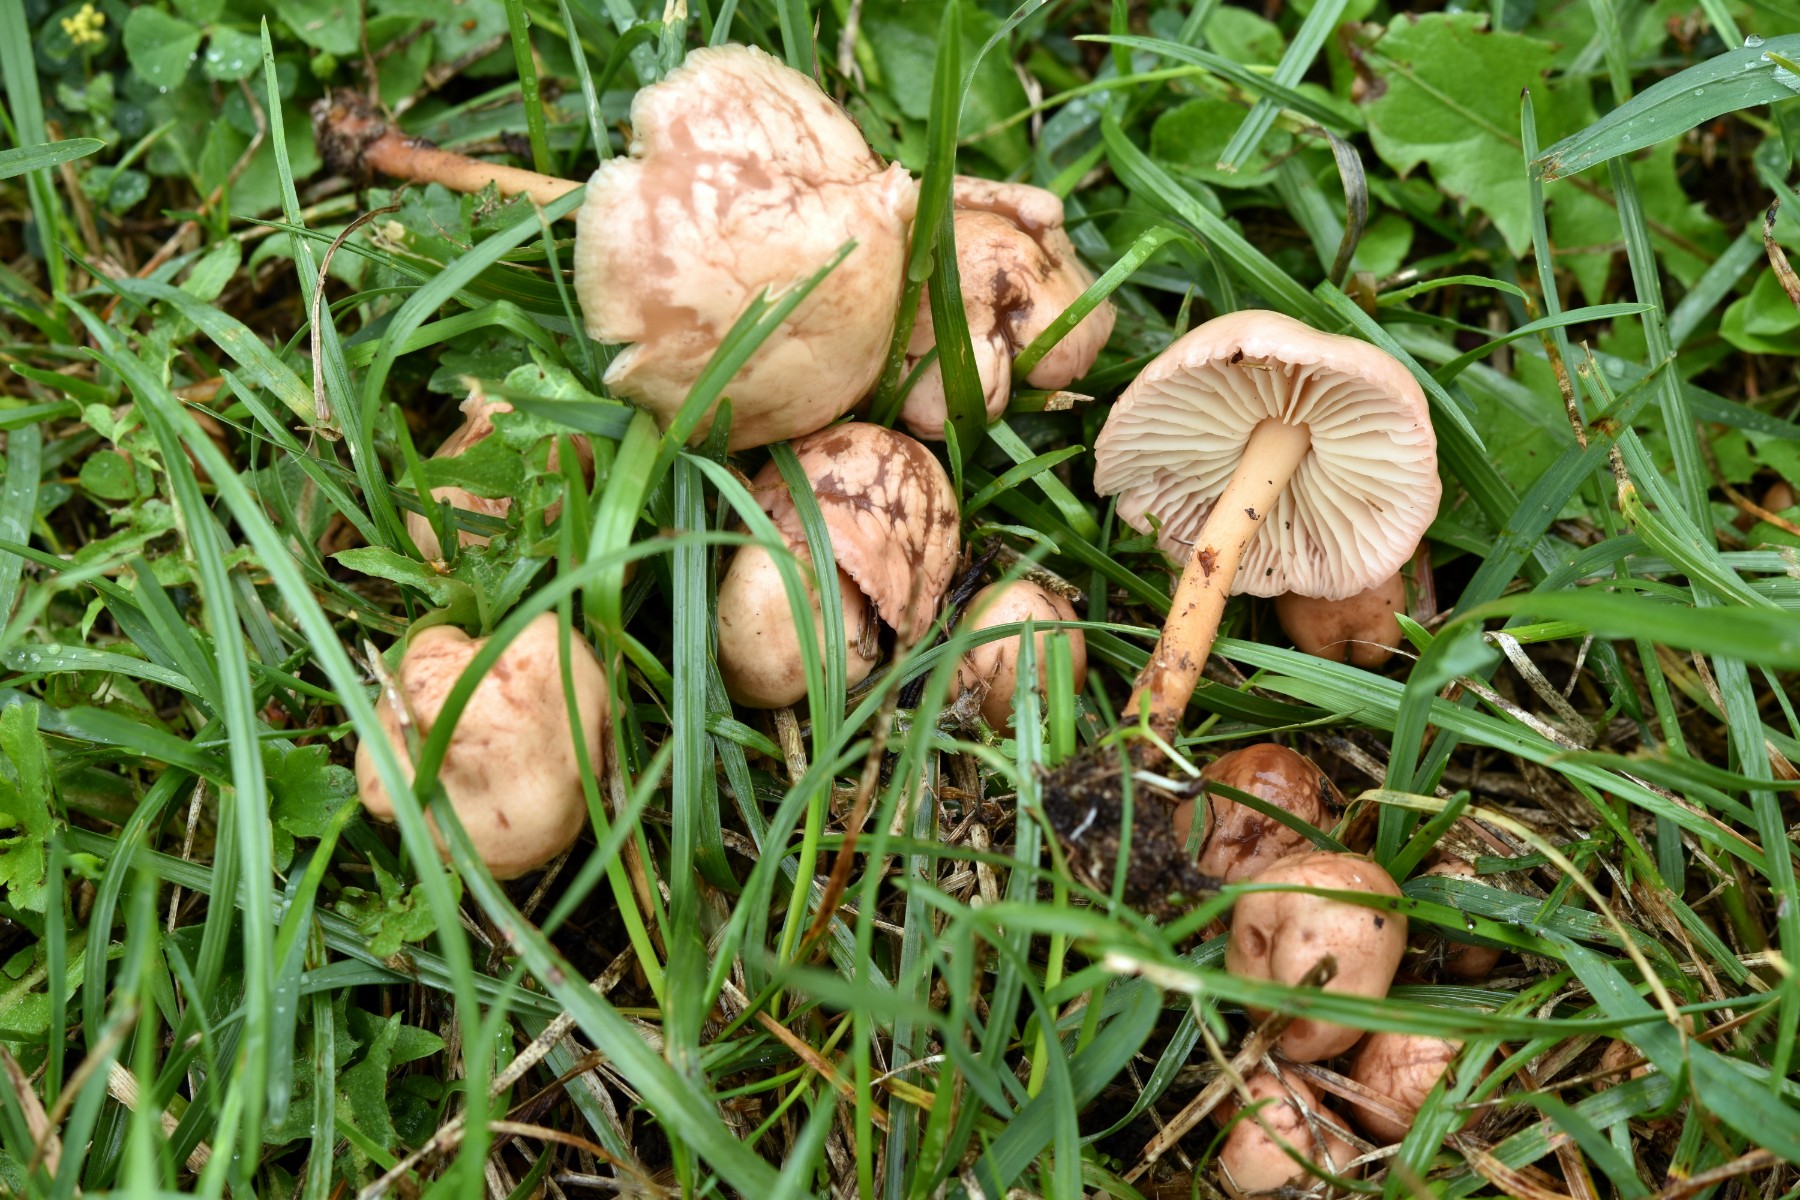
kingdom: Fungi
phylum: Basidiomycota
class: Agaricomycetes
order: Agaricales
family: Marasmiaceae
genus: Marasmius
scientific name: Marasmius oreades
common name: elledans-bruskhat
